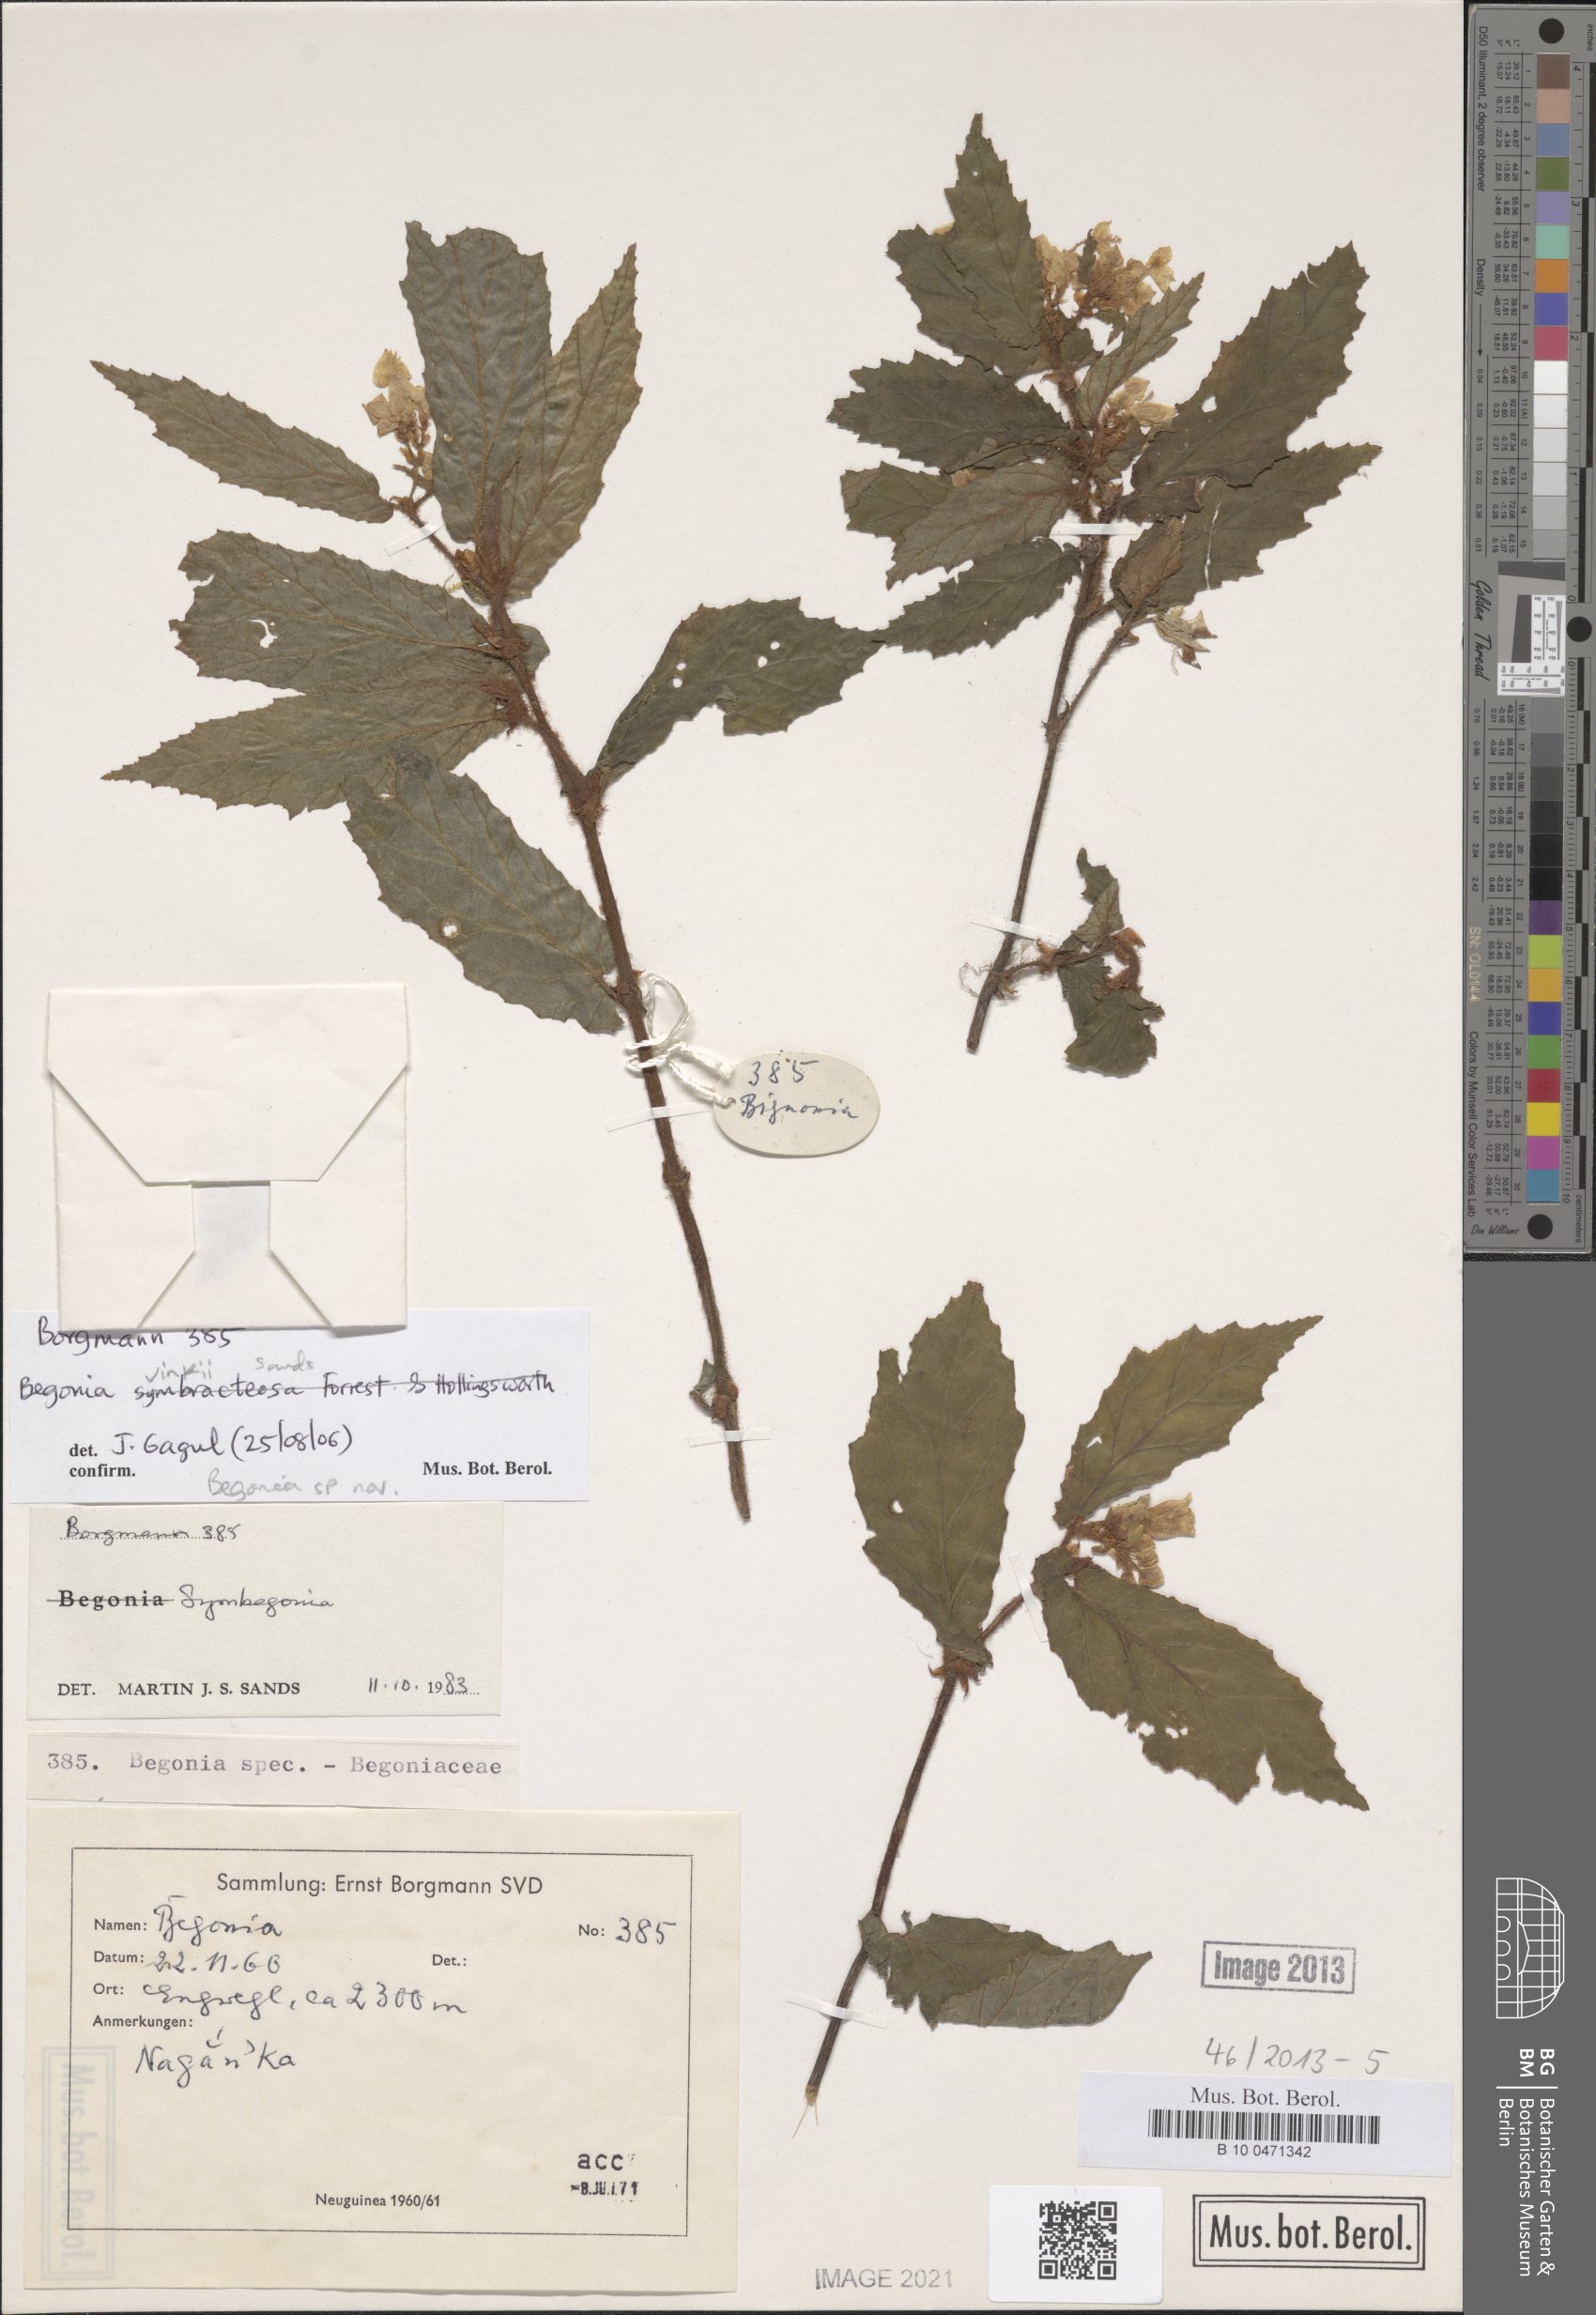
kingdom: Plantae
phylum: Tracheophyta
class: Magnoliopsida
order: Cucurbitales
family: Begoniaceae
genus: Begonia
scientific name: Begonia vinkii
